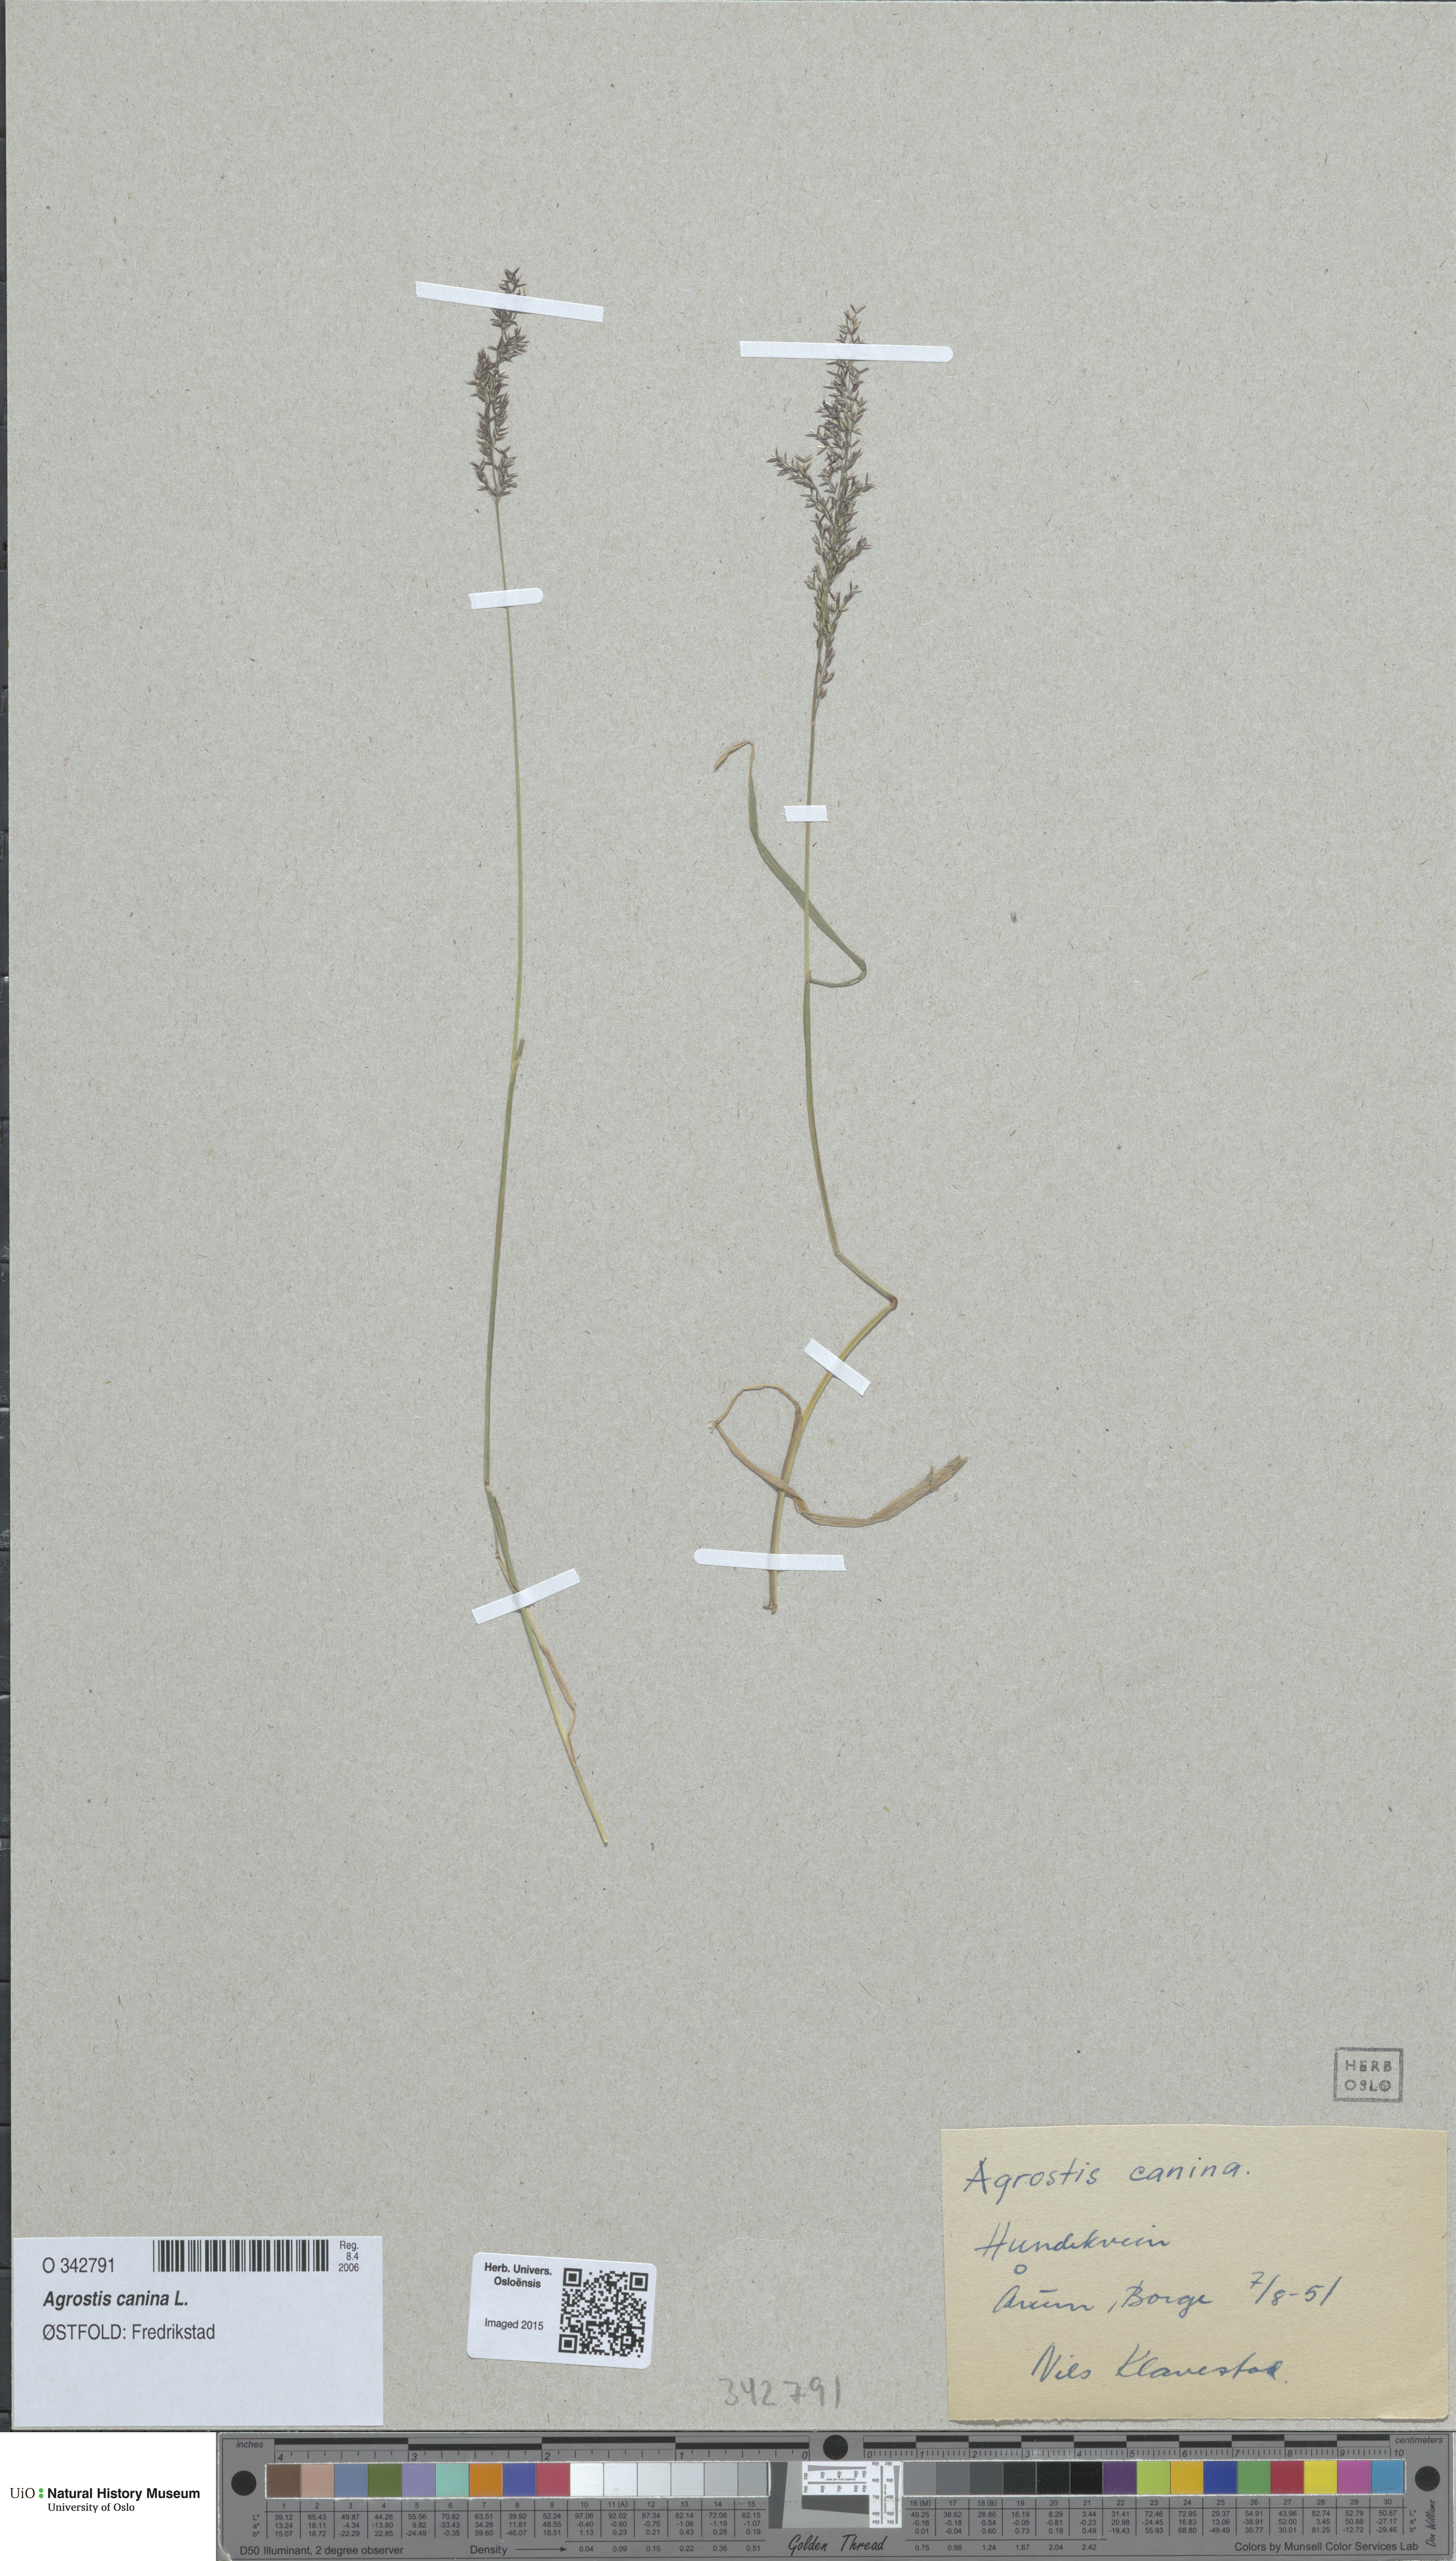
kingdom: Plantae
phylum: Tracheophyta
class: Liliopsida
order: Poales
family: Poaceae
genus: Agrostis
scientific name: Agrostis canina
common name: Velvet bent
